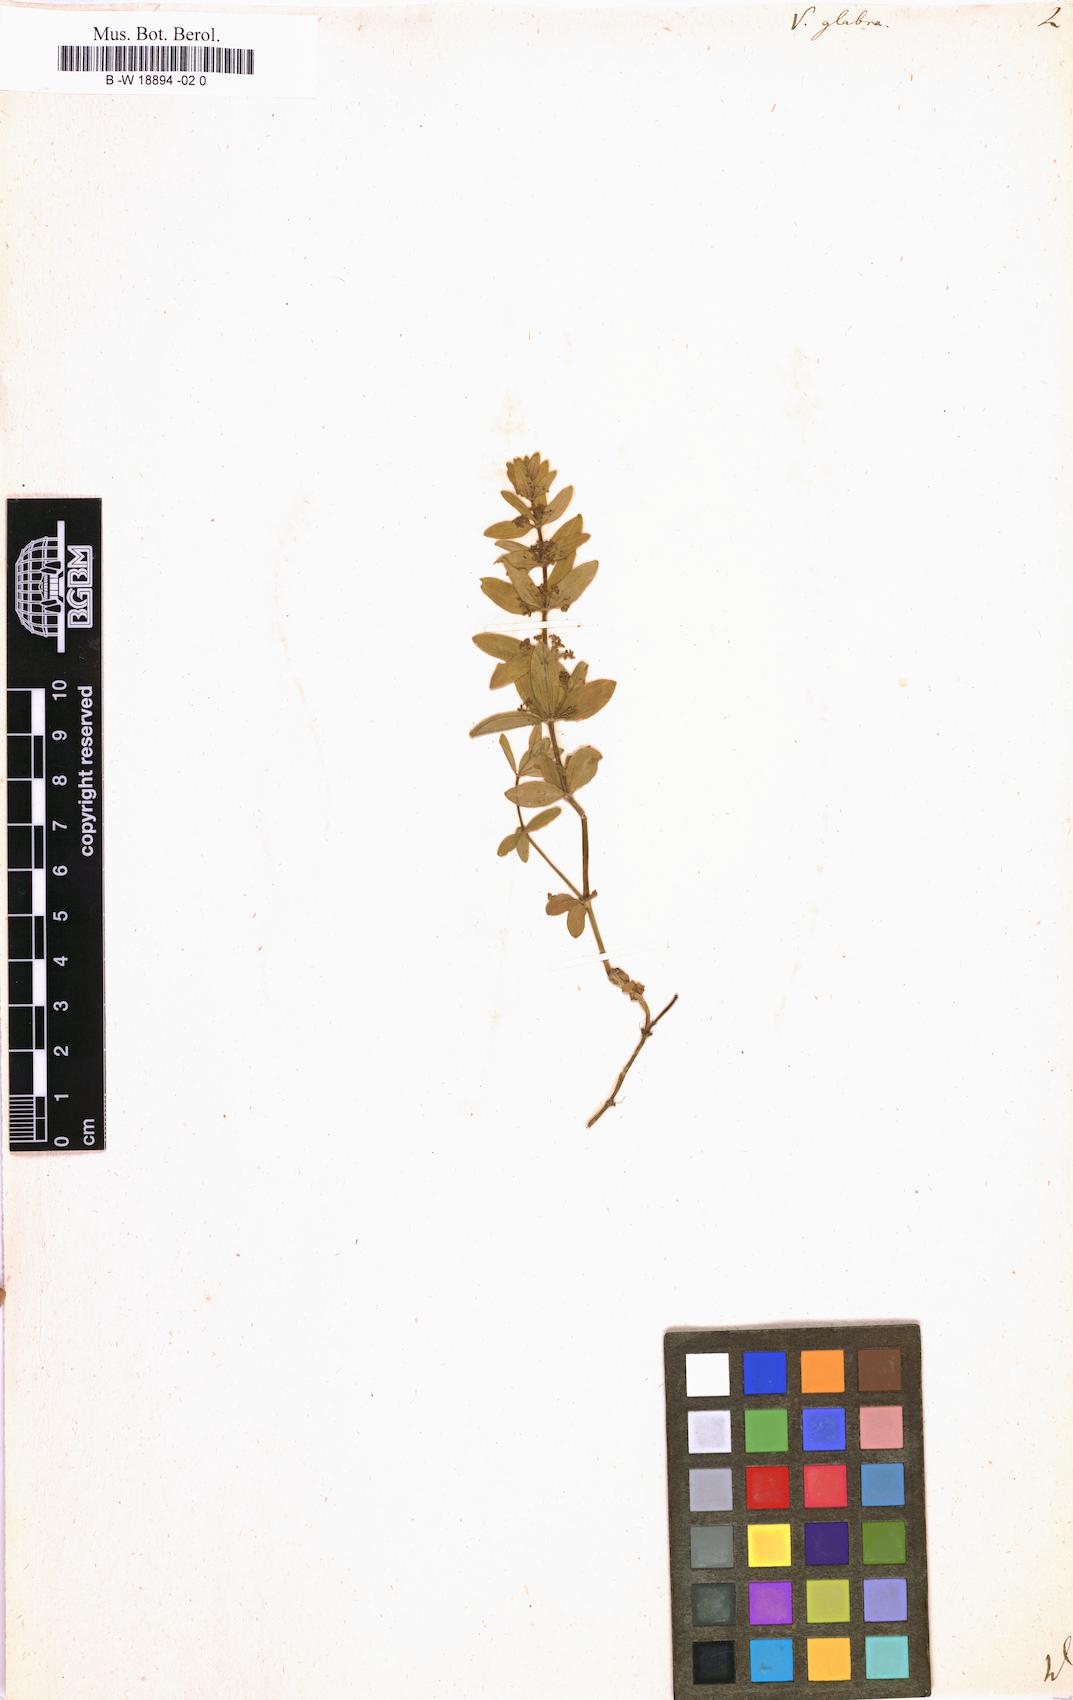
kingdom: Plantae
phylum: Tracheophyta
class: Magnoliopsida
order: Gentianales
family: Rubiaceae
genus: Cruciata
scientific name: Cruciata glabra
